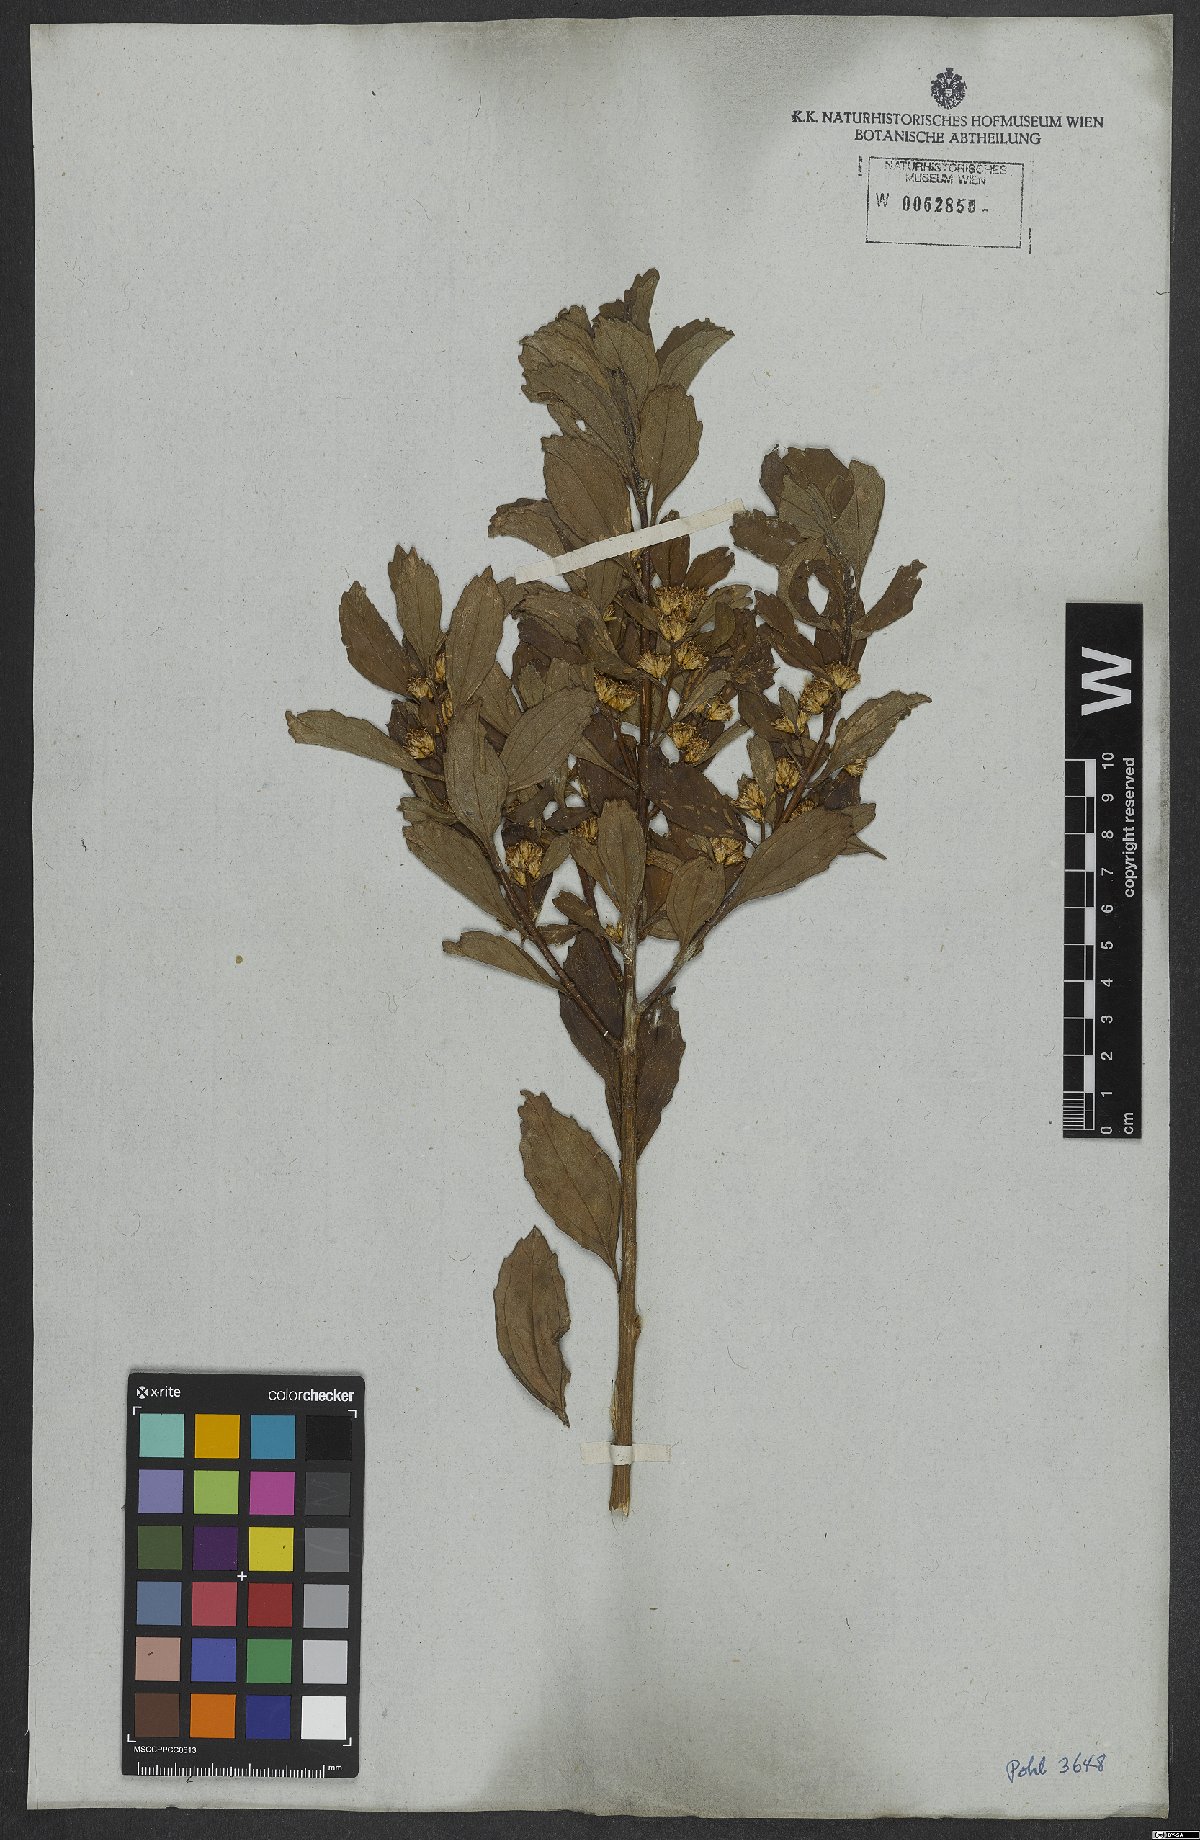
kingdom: Plantae
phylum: Tracheophyta
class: Magnoliopsida
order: Asterales
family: Asteraceae
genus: Baccharis
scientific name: Baccharis
